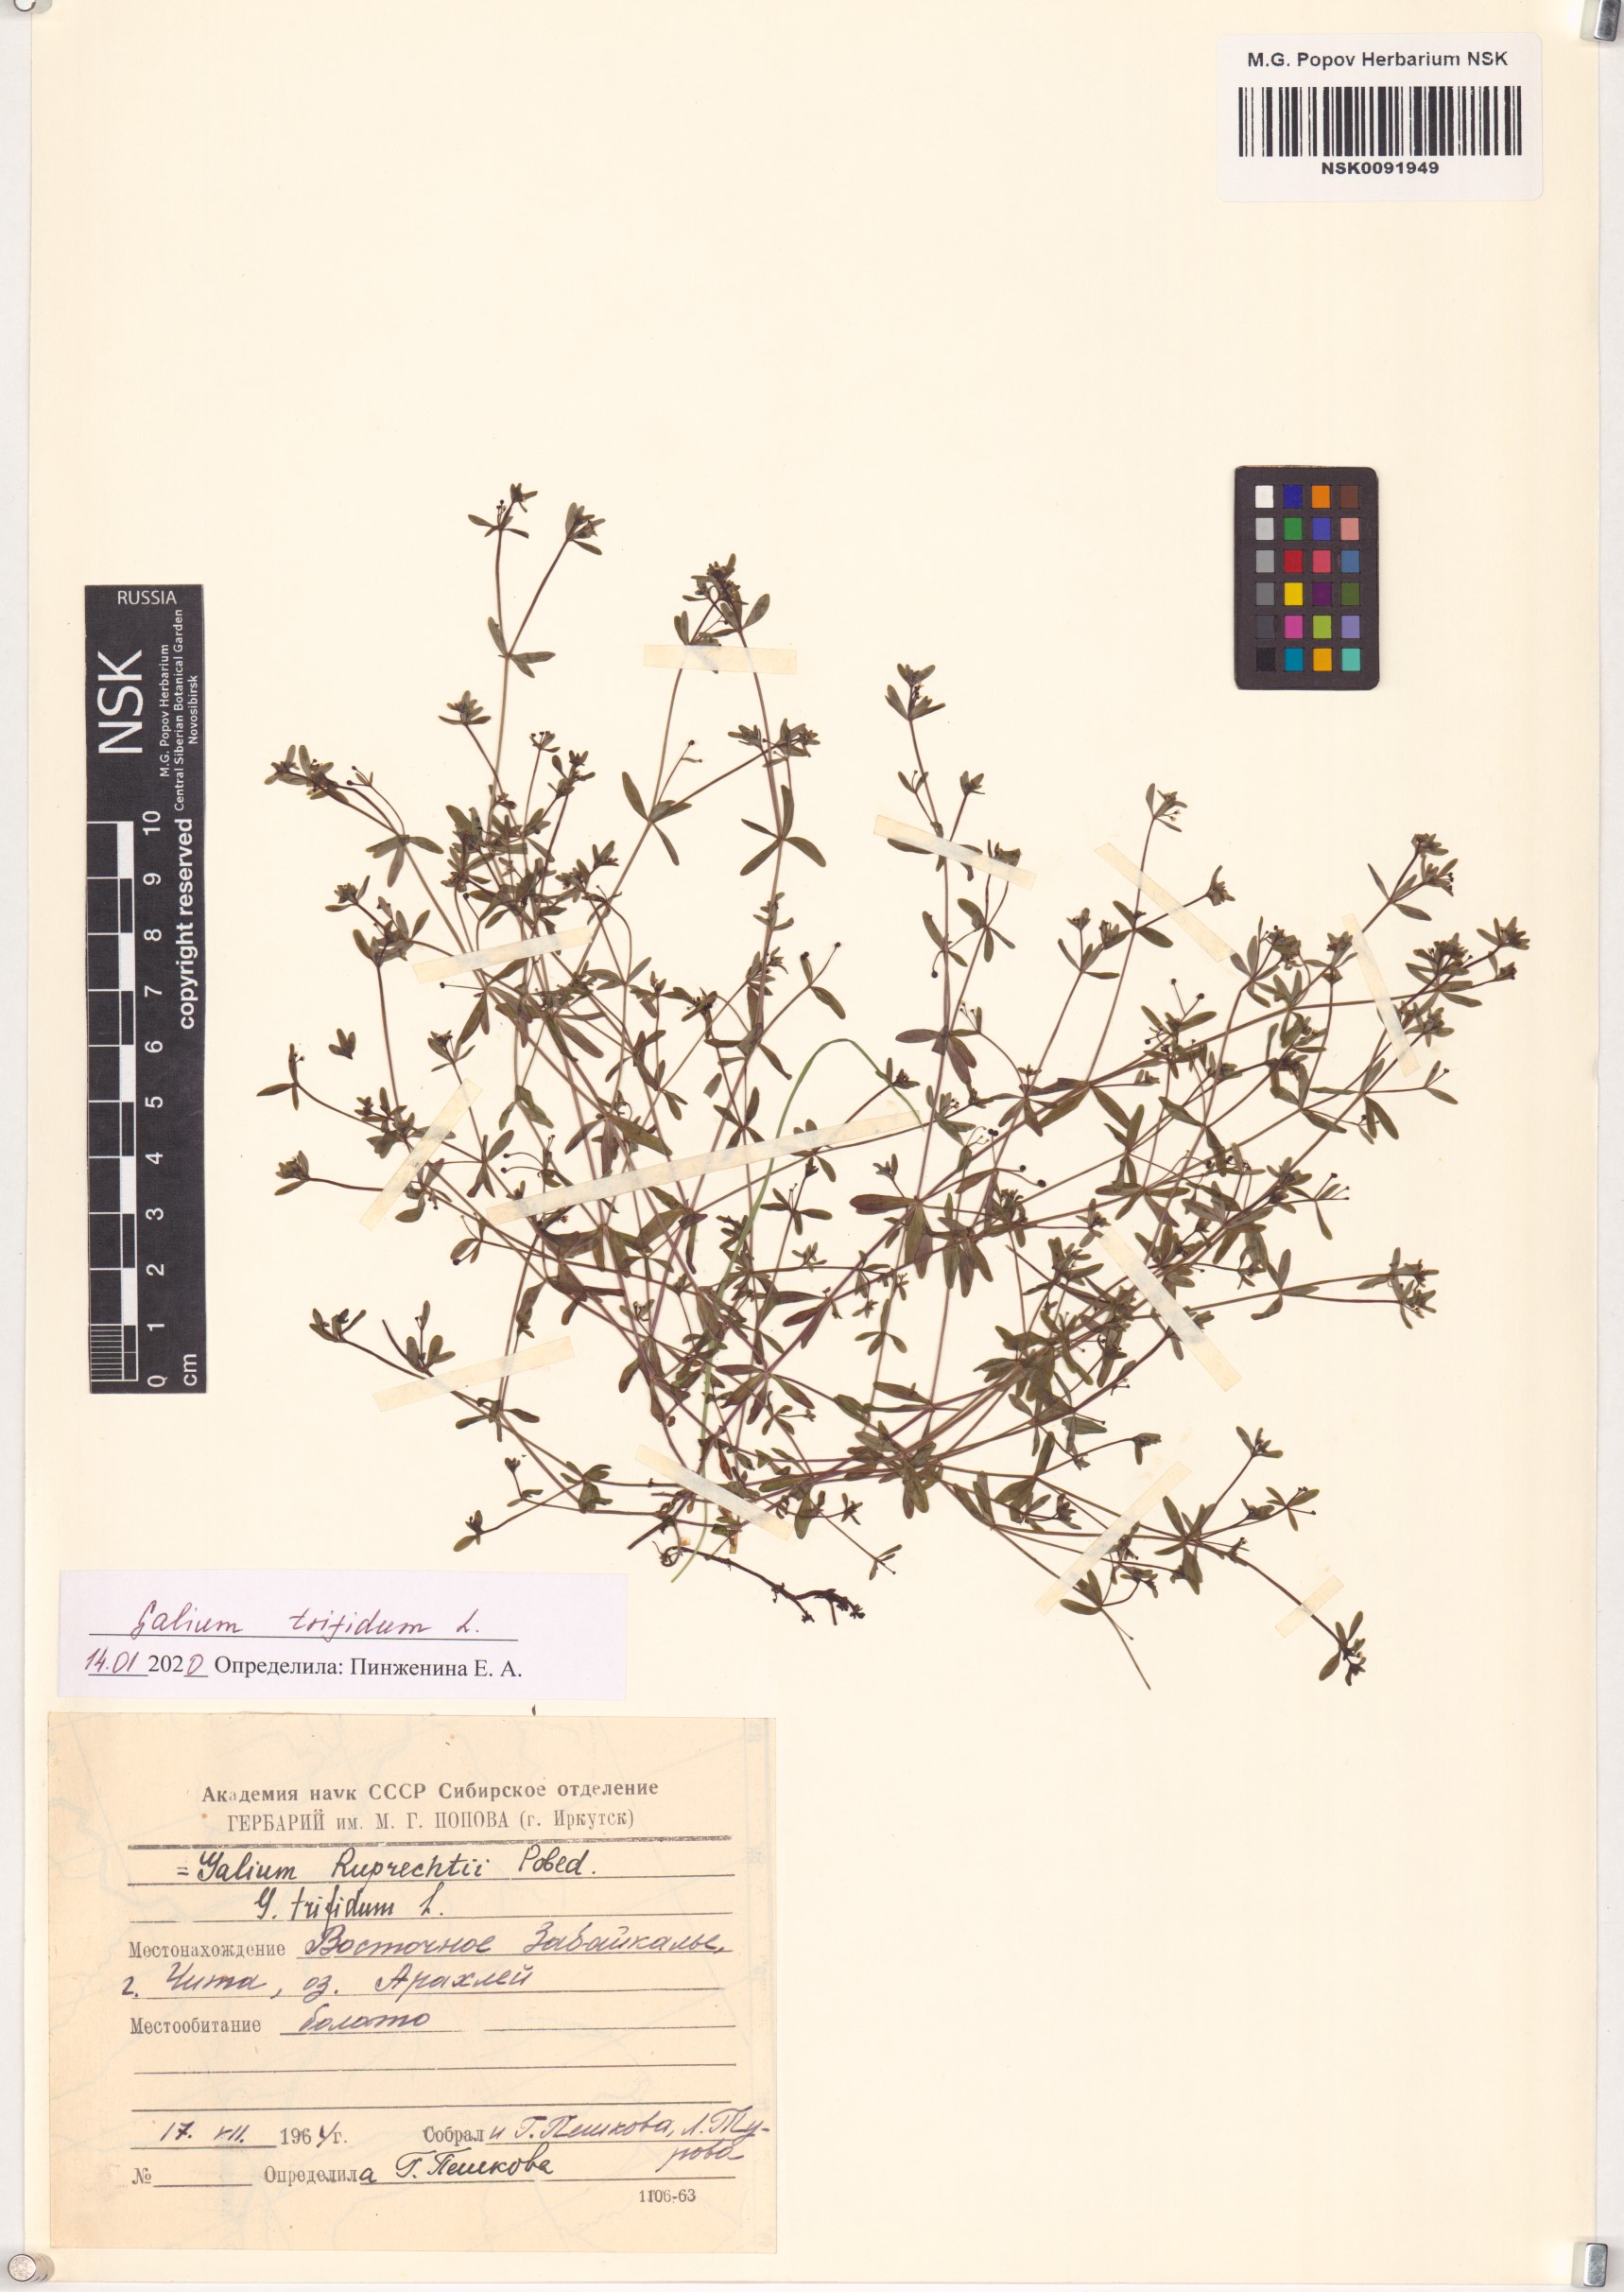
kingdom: Plantae
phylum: Tracheophyta
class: Magnoliopsida
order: Gentianales
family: Rubiaceae
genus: Galium
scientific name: Galium trifidum
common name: Small bedstraw
